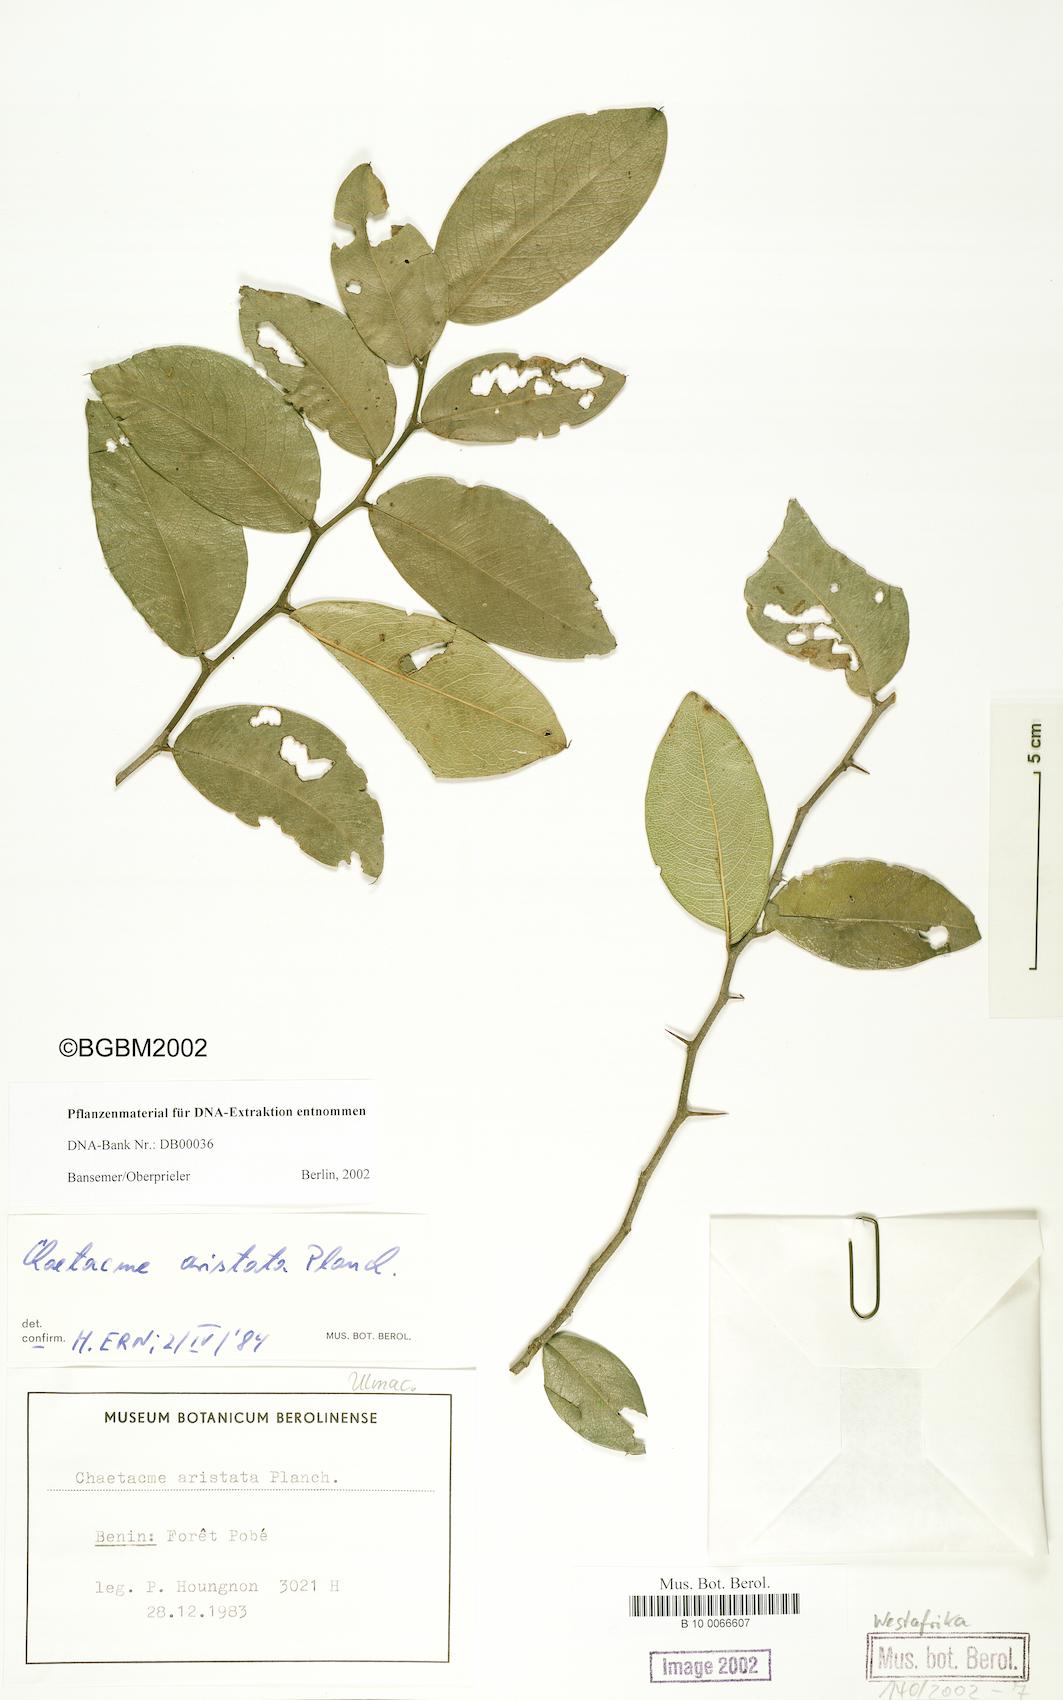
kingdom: Plantae
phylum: Tracheophyta
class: Magnoliopsida
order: Rosales
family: Cannabaceae
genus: Chaetacme
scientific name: Chaetacme
